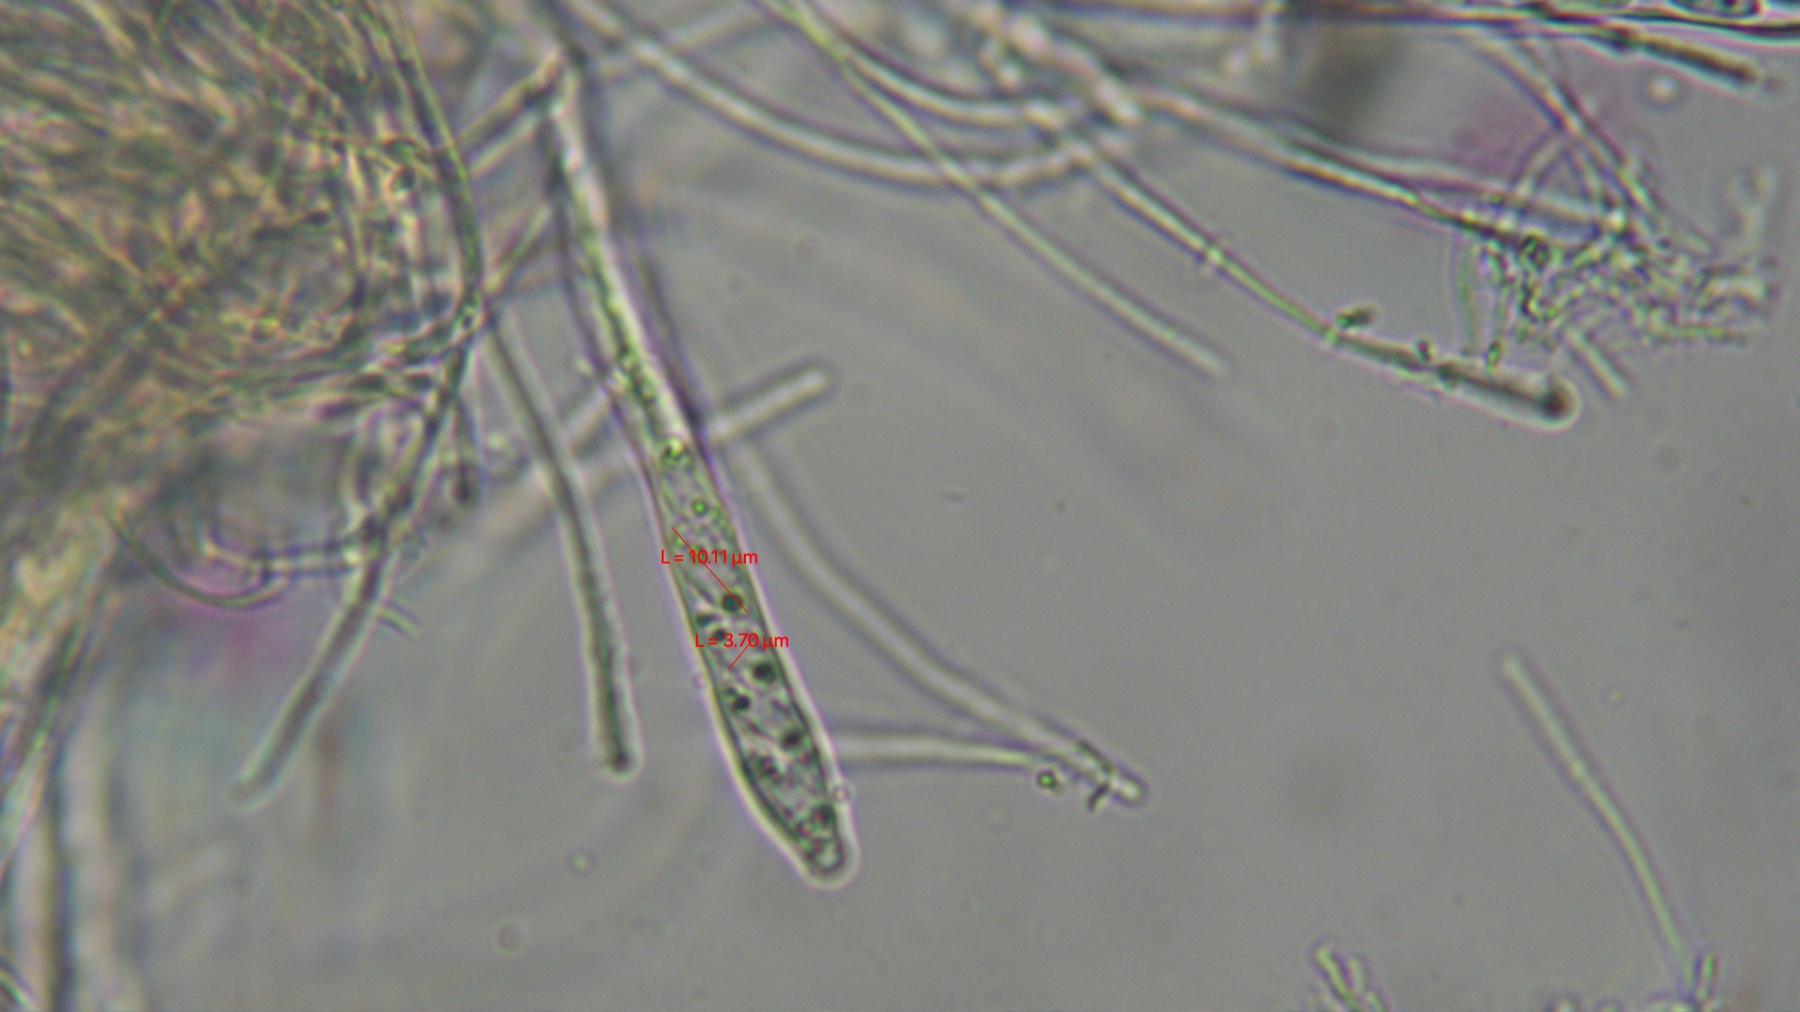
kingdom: Fungi
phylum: Ascomycota
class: Leotiomycetes
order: Helotiales
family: Pezizellaceae
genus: Calycina
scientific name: Calycina citrina
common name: almindelig gulskive
